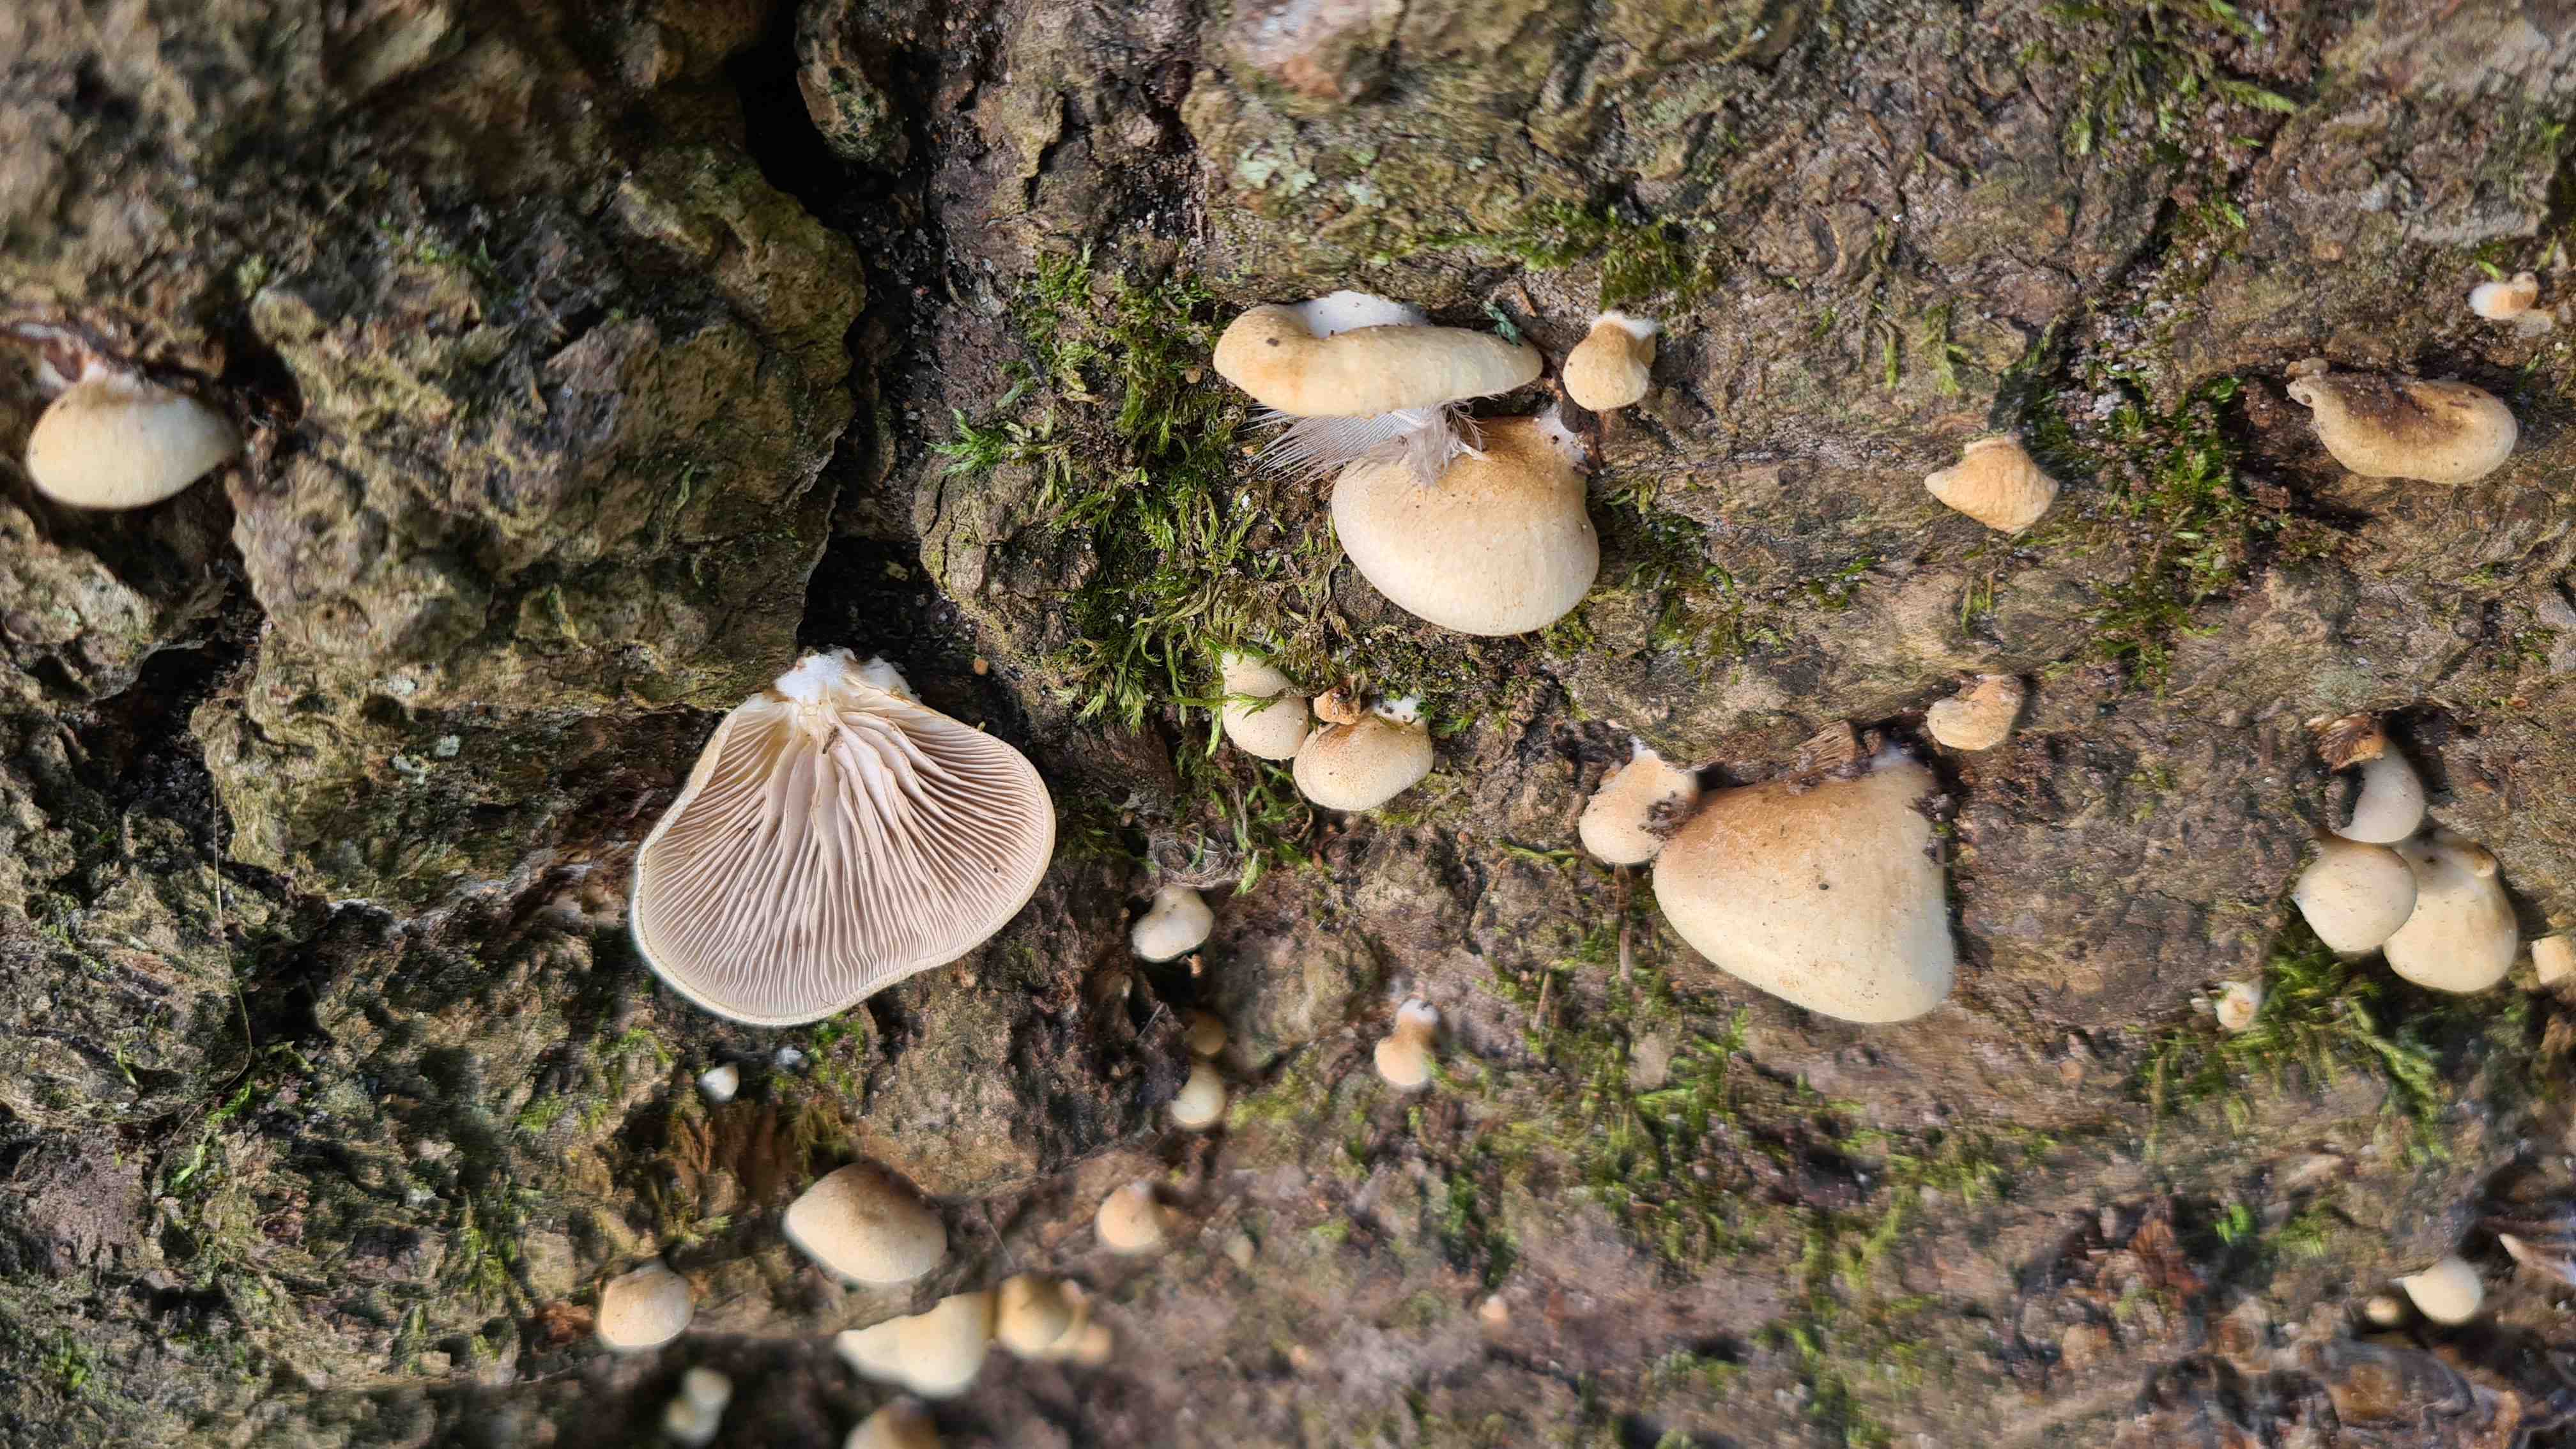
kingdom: Fungi
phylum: Basidiomycota
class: Agaricomycetes
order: Agaricales
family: Crepidotaceae
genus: Crepidotus
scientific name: Crepidotus calolepis
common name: småskællet muslingesvamp
